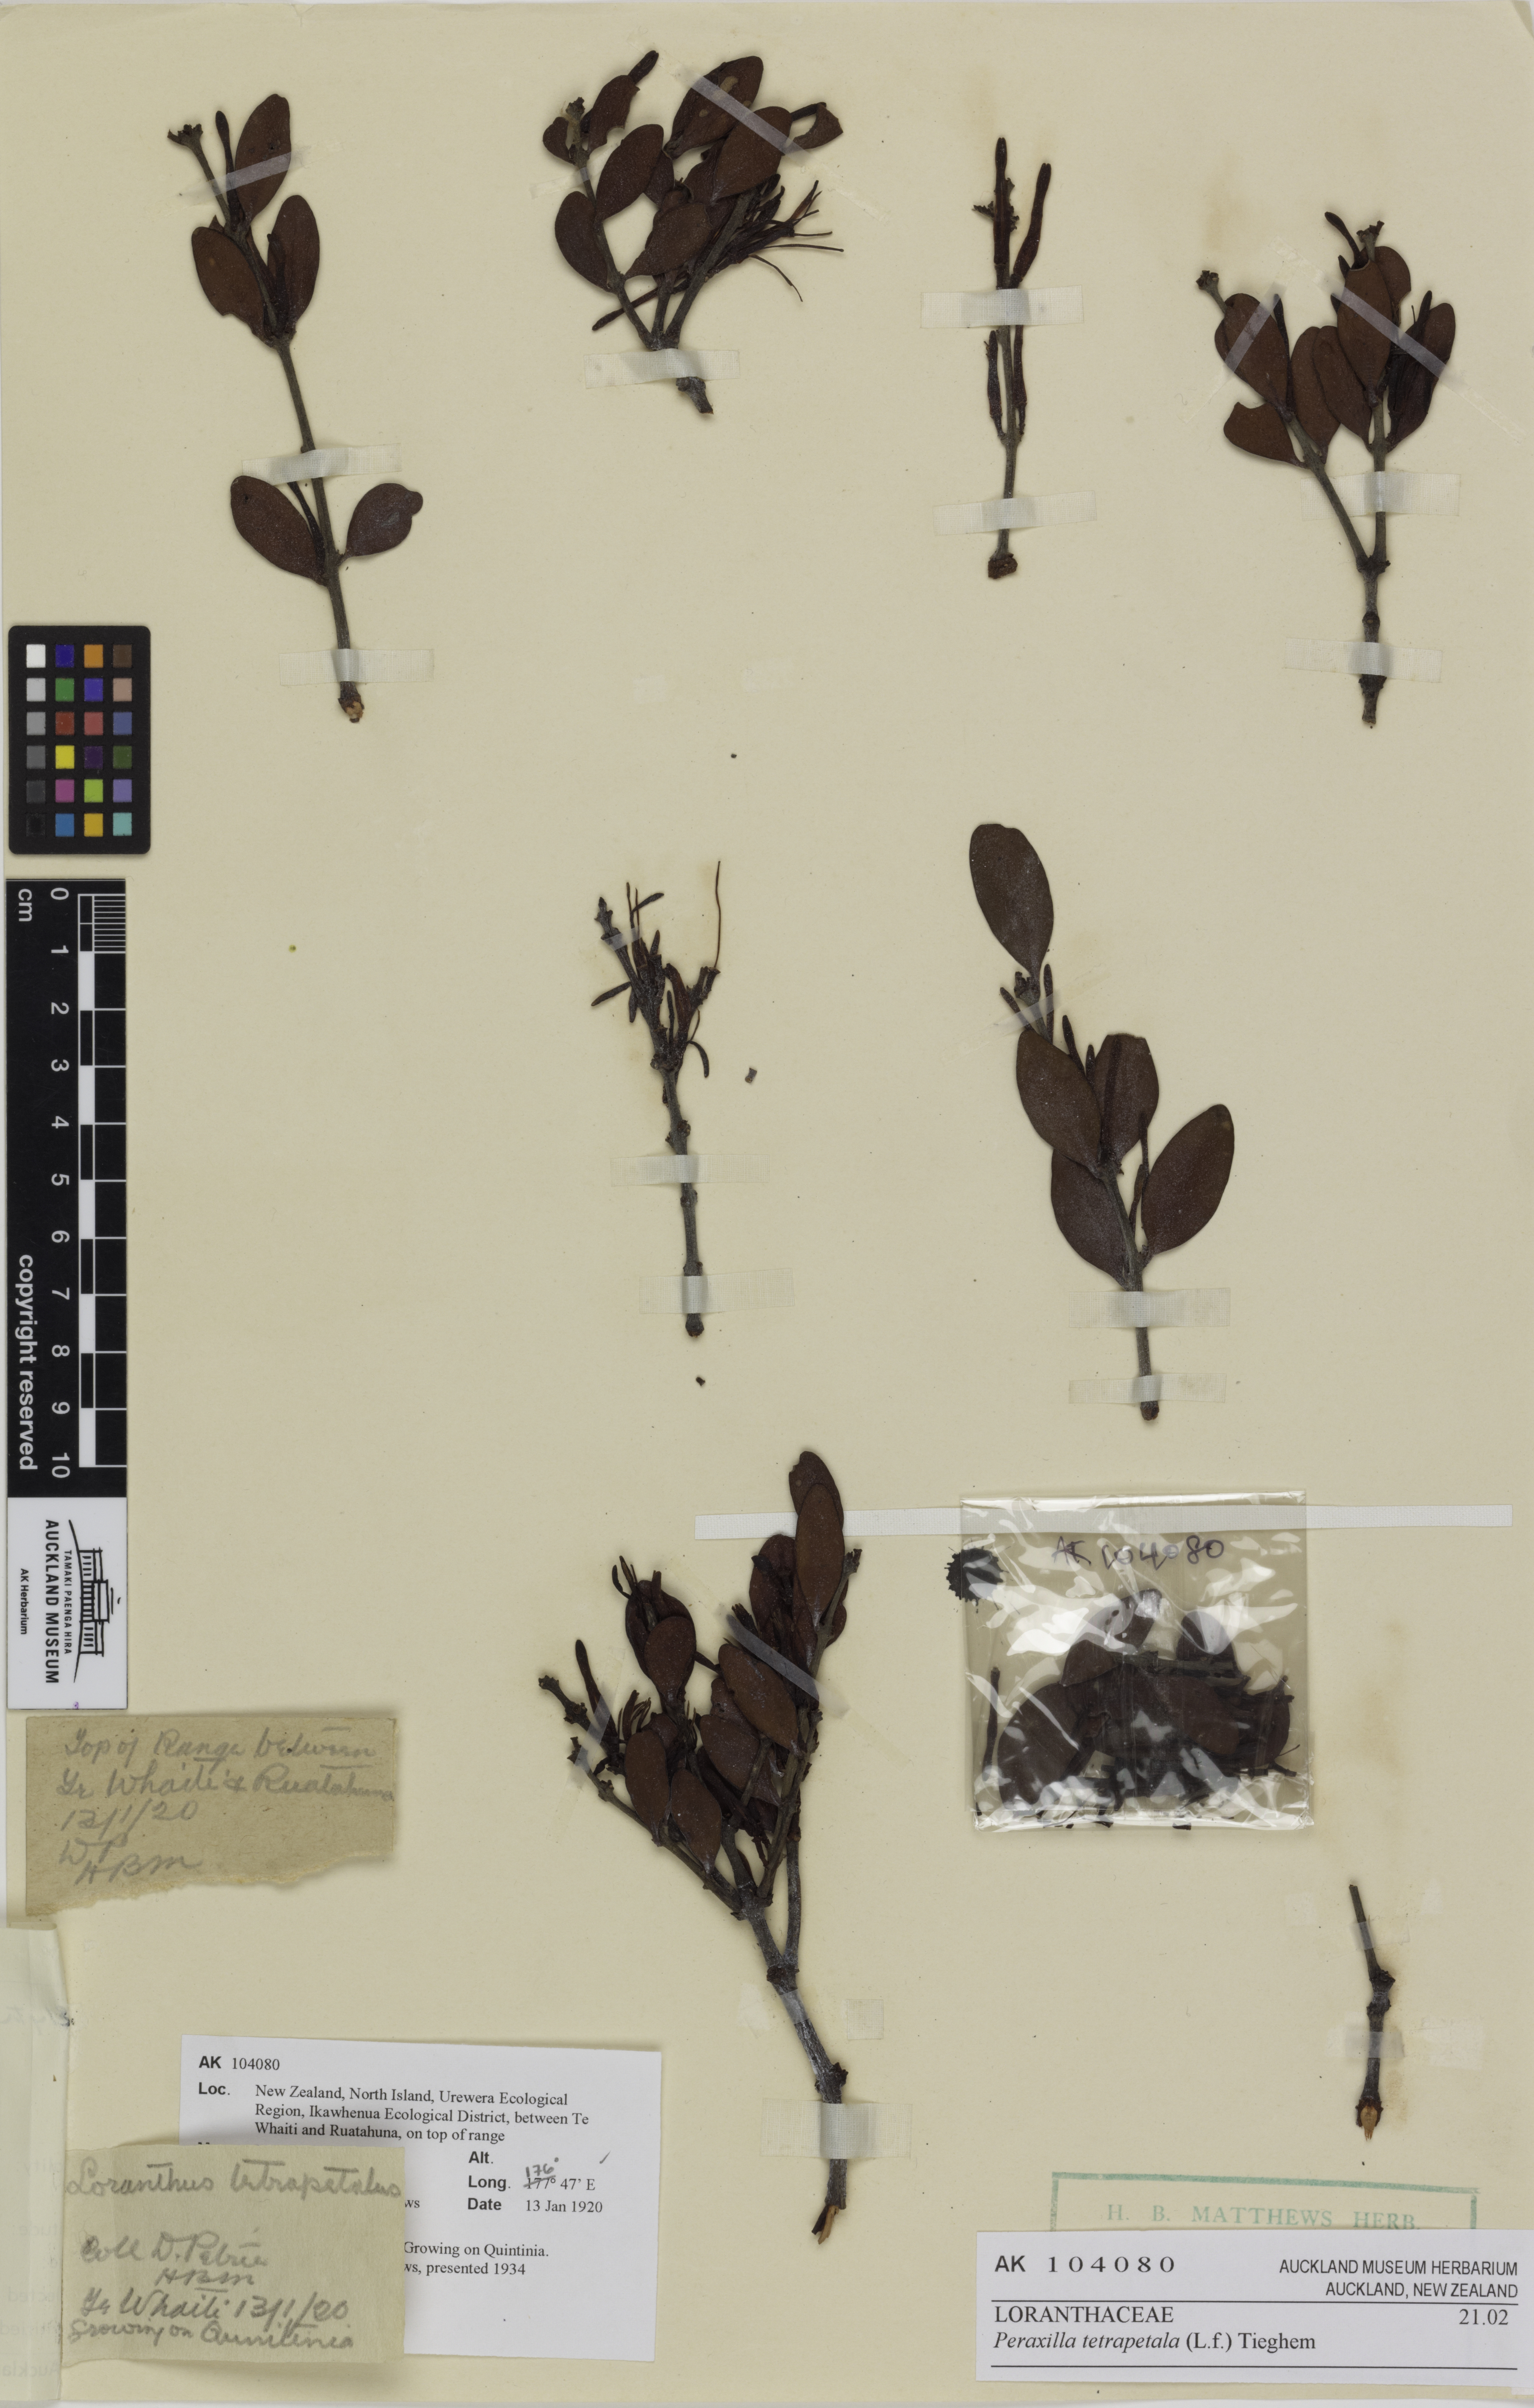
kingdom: Plantae
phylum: Tracheophyta
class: Magnoliopsida
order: Santalales
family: Loranthaceae
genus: Peraxilla
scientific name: Peraxilla tetrapetala
